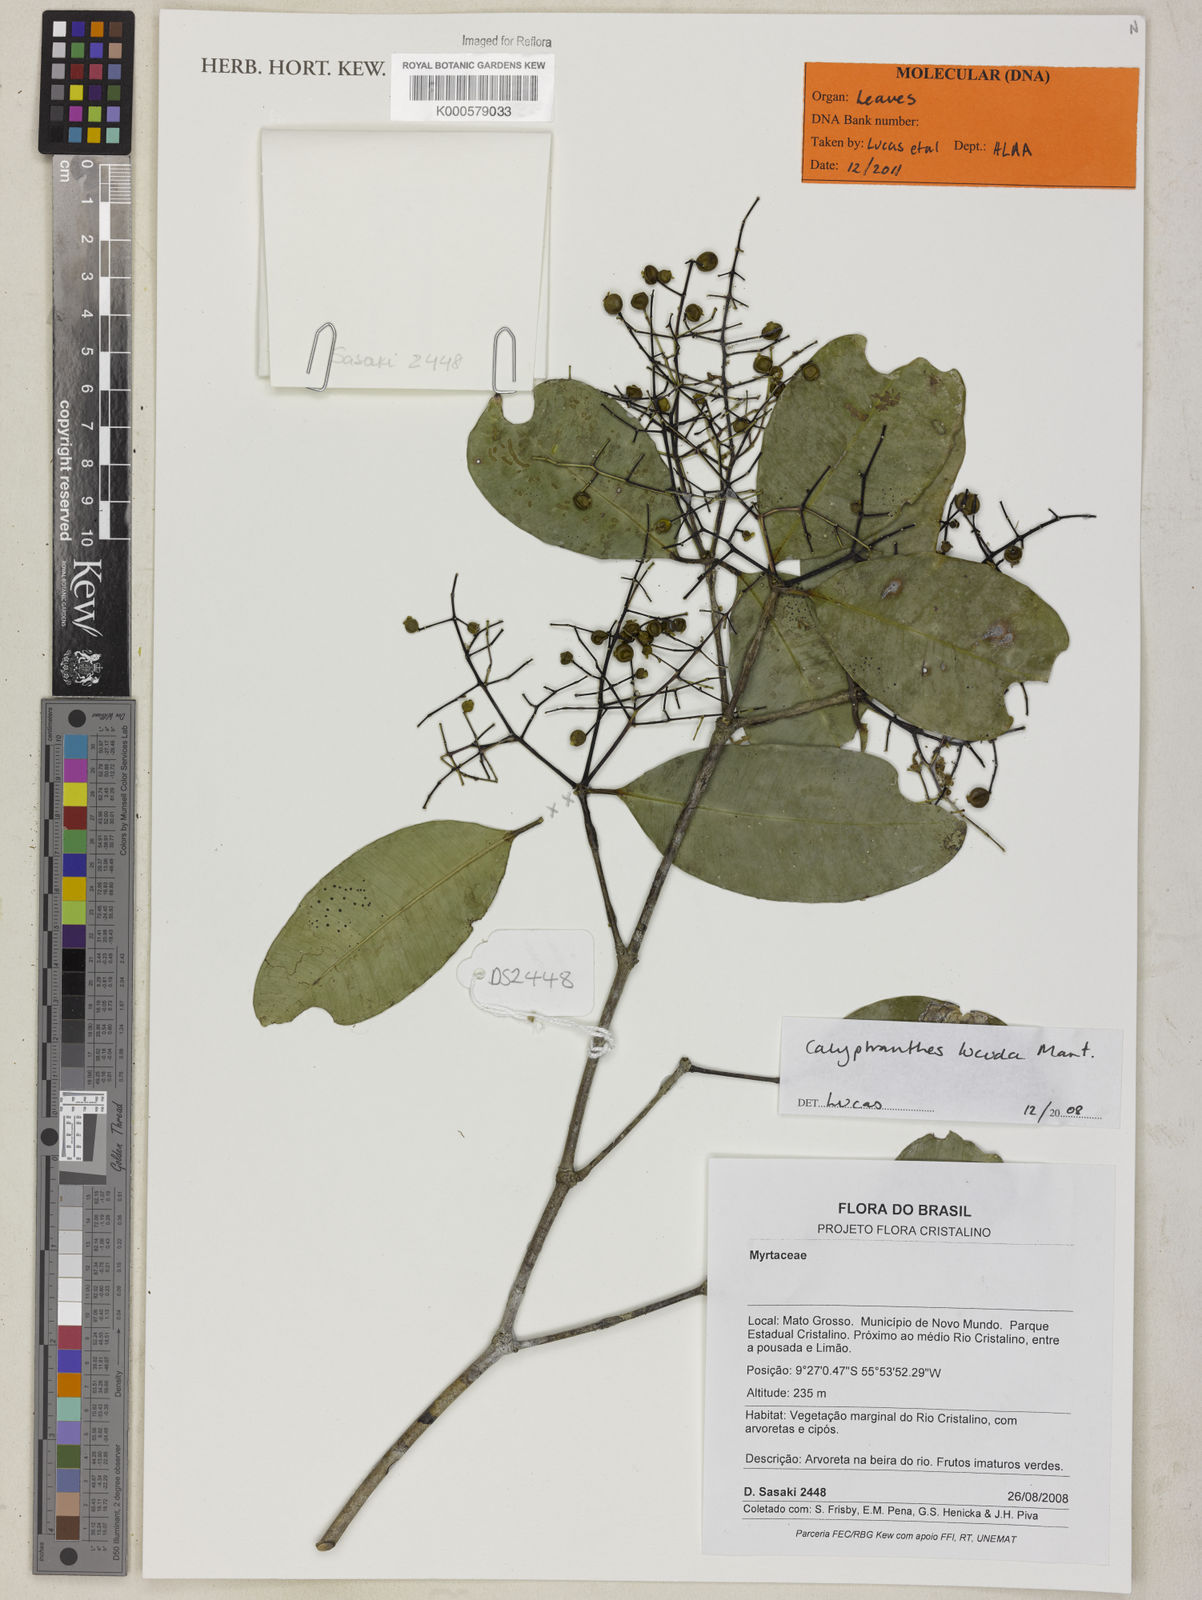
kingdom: Plantae
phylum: Tracheophyta
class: Magnoliopsida
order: Myrtales
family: Myrtaceae
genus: Calyptranthes
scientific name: Calyptranthes
